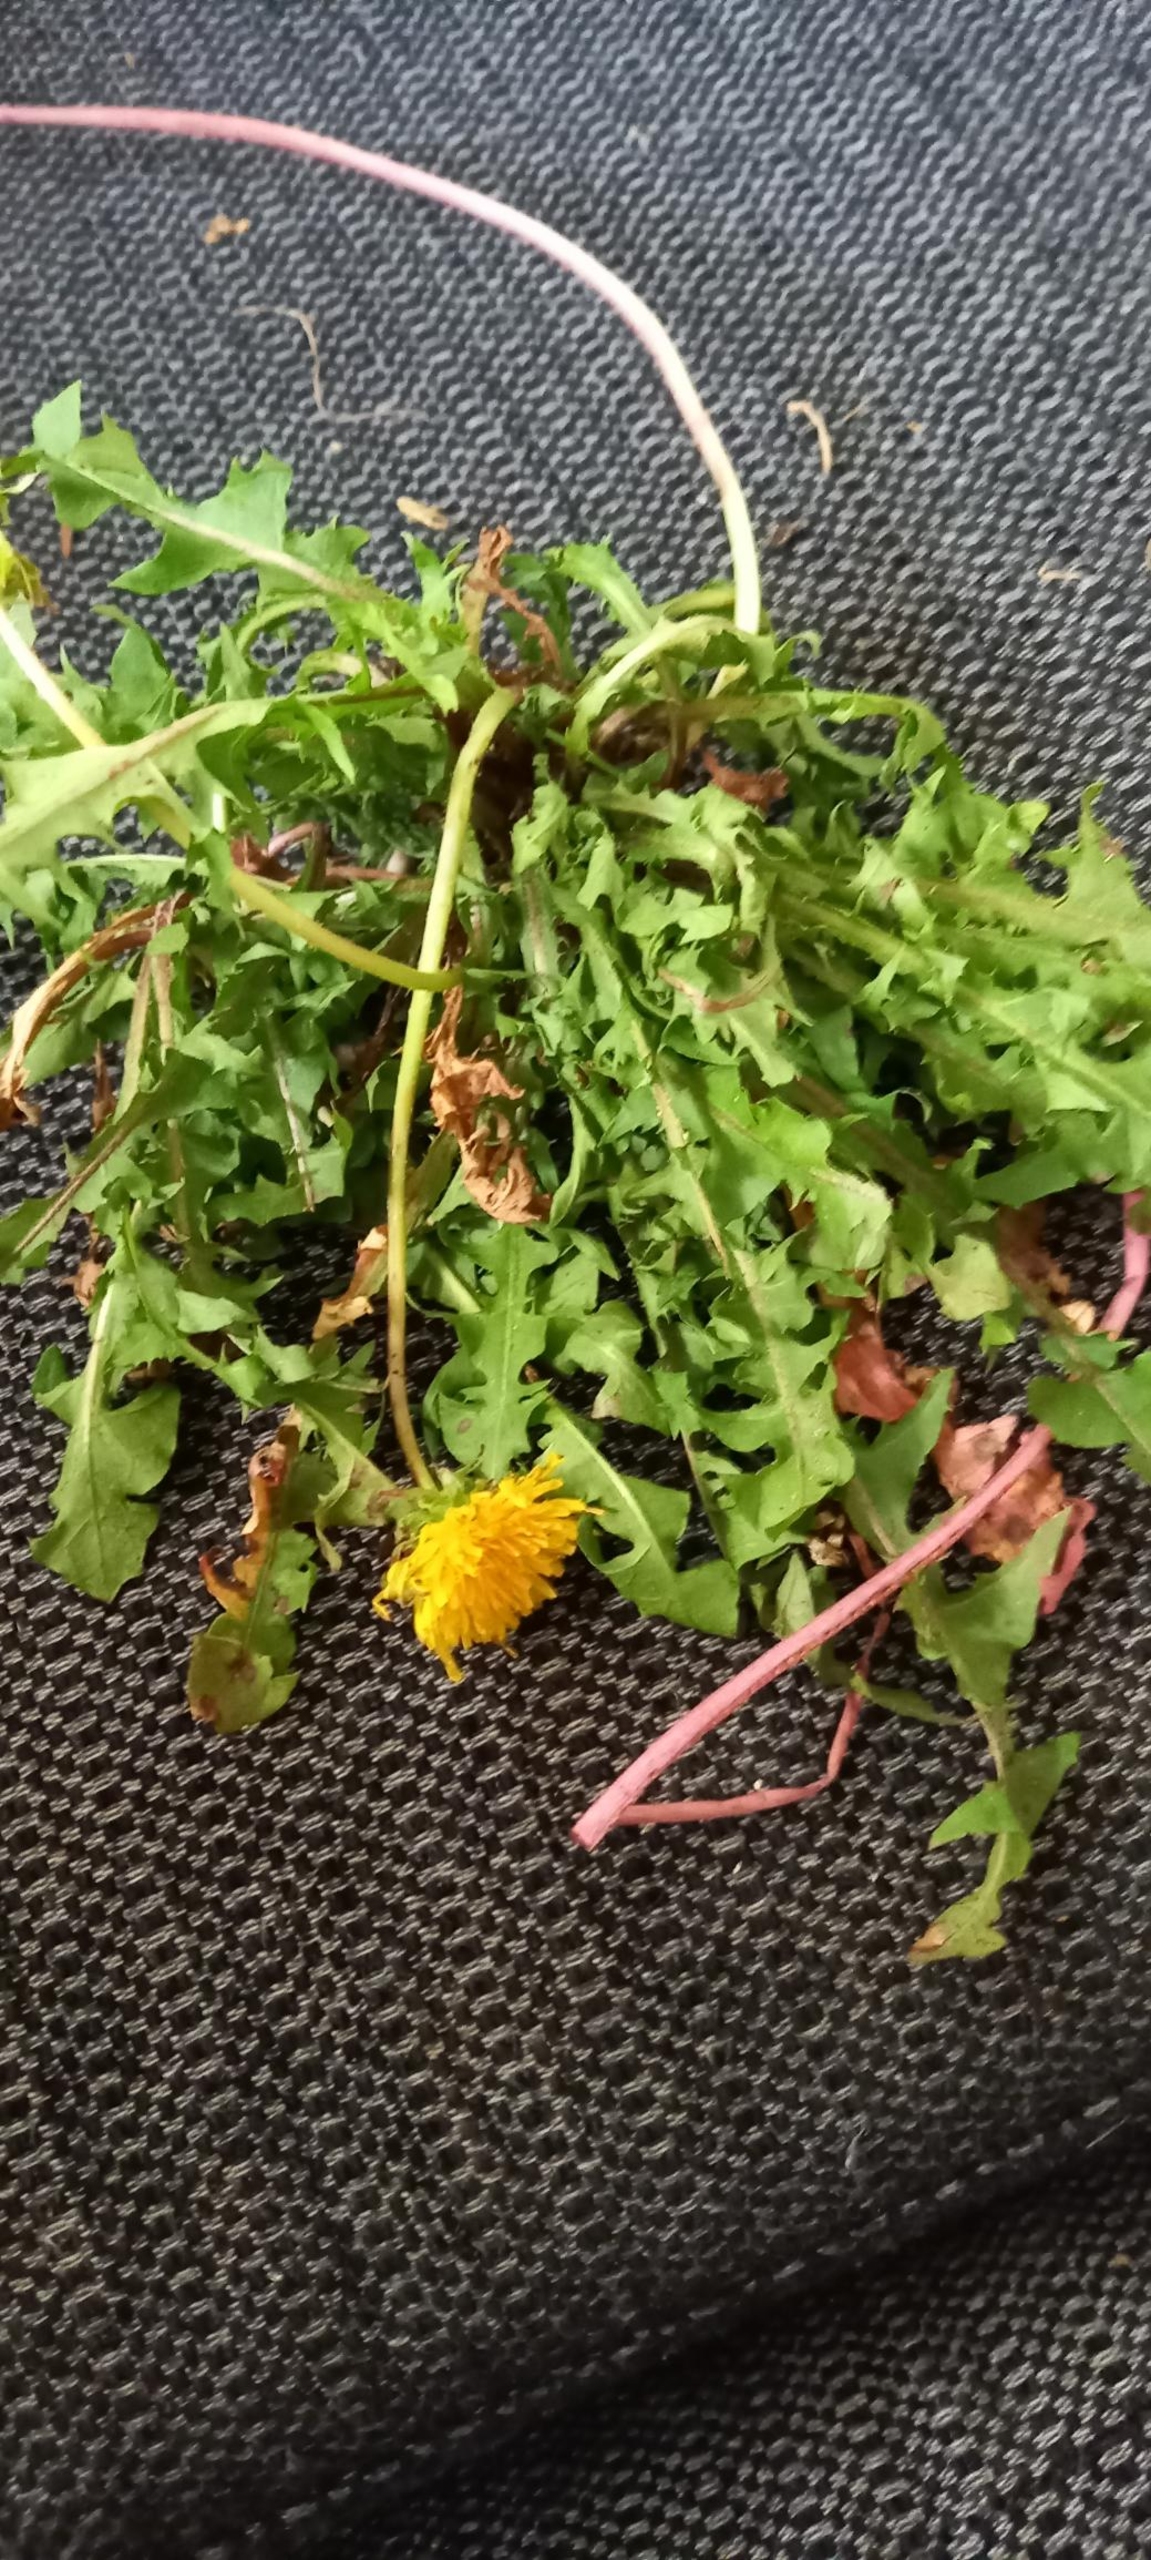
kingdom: Plantae
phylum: Tracheophyta
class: Magnoliopsida
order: Asterales
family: Asteraceae
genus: Taraxacum
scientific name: Taraxacum
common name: Mælkebøtteslægten
